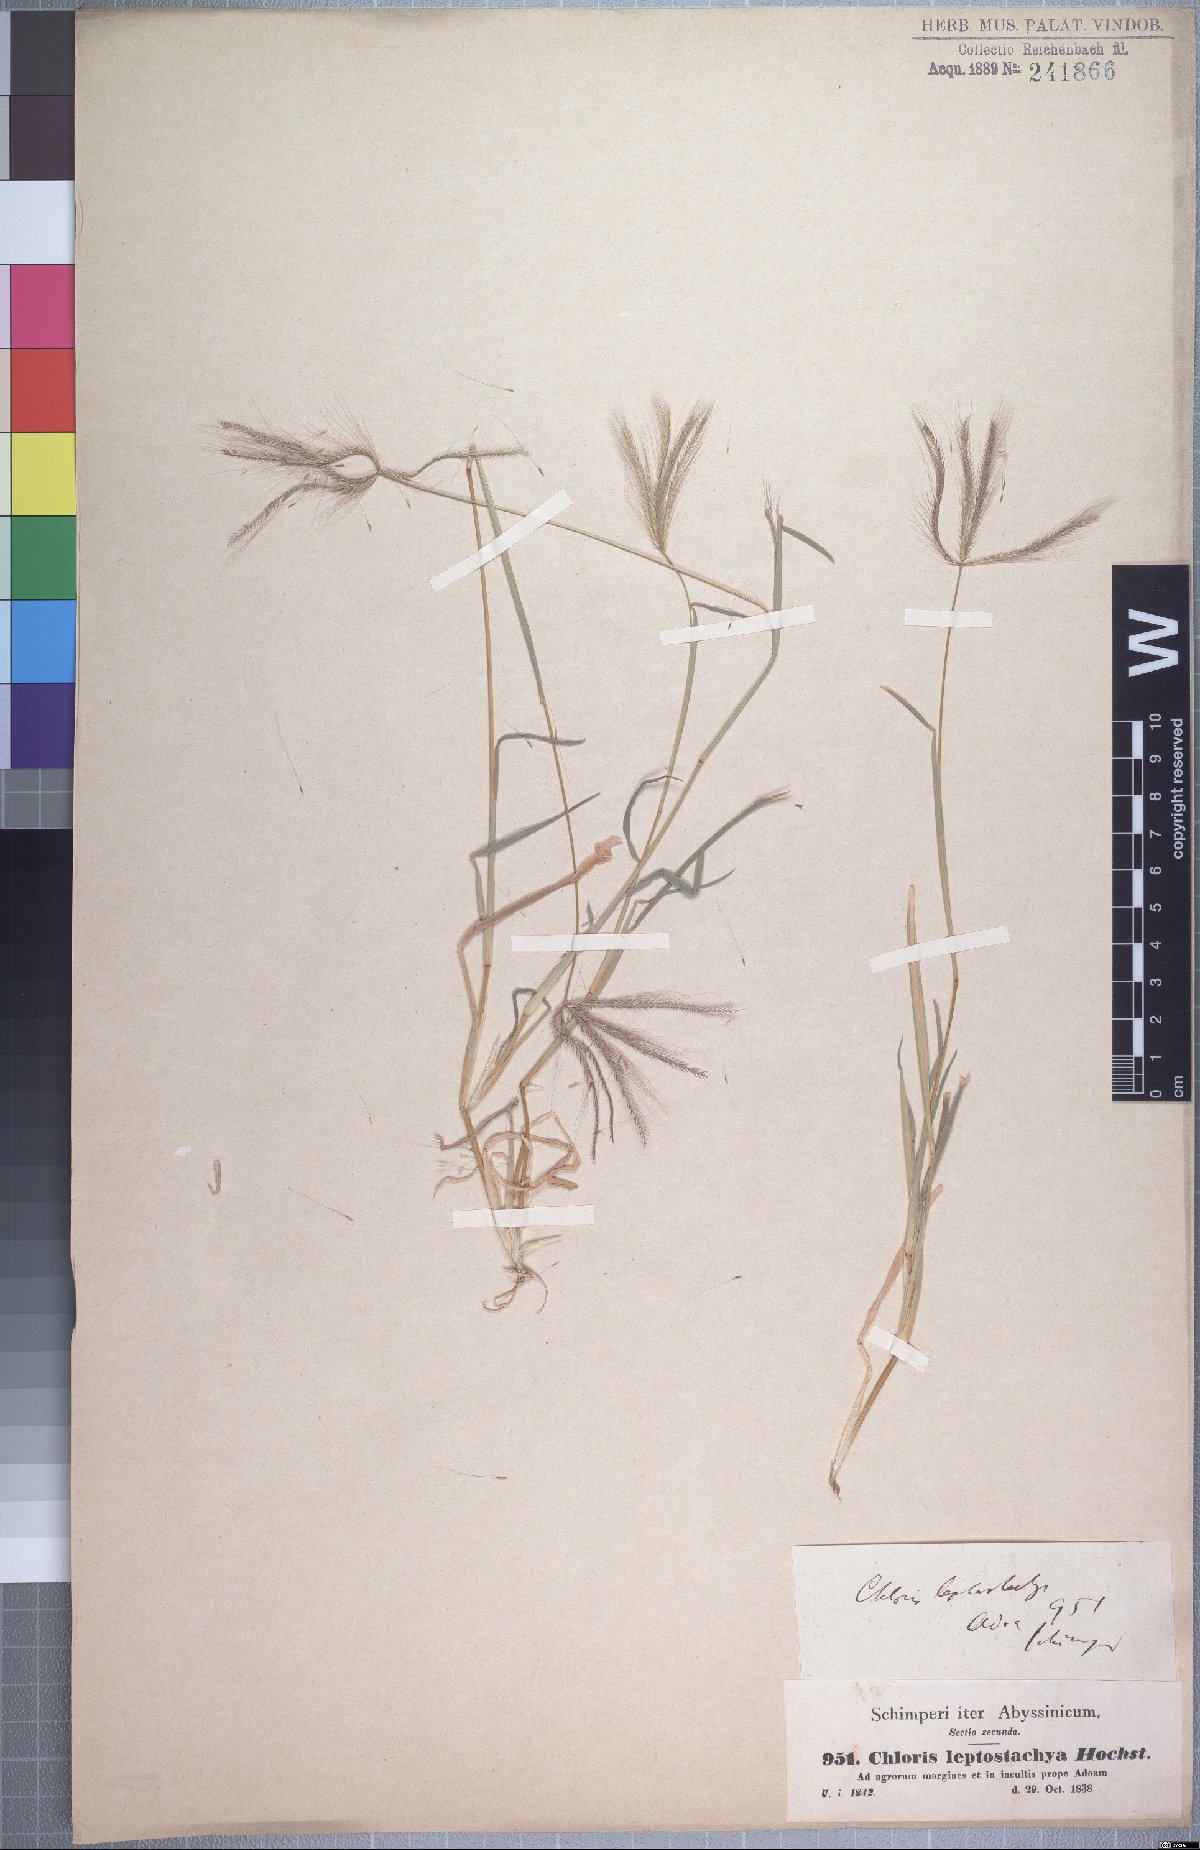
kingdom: Plantae
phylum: Tracheophyta
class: Liliopsida
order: Poales
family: Poaceae
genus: Chloris
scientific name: Chloris pycnothrix
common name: Spiderweb chloris
